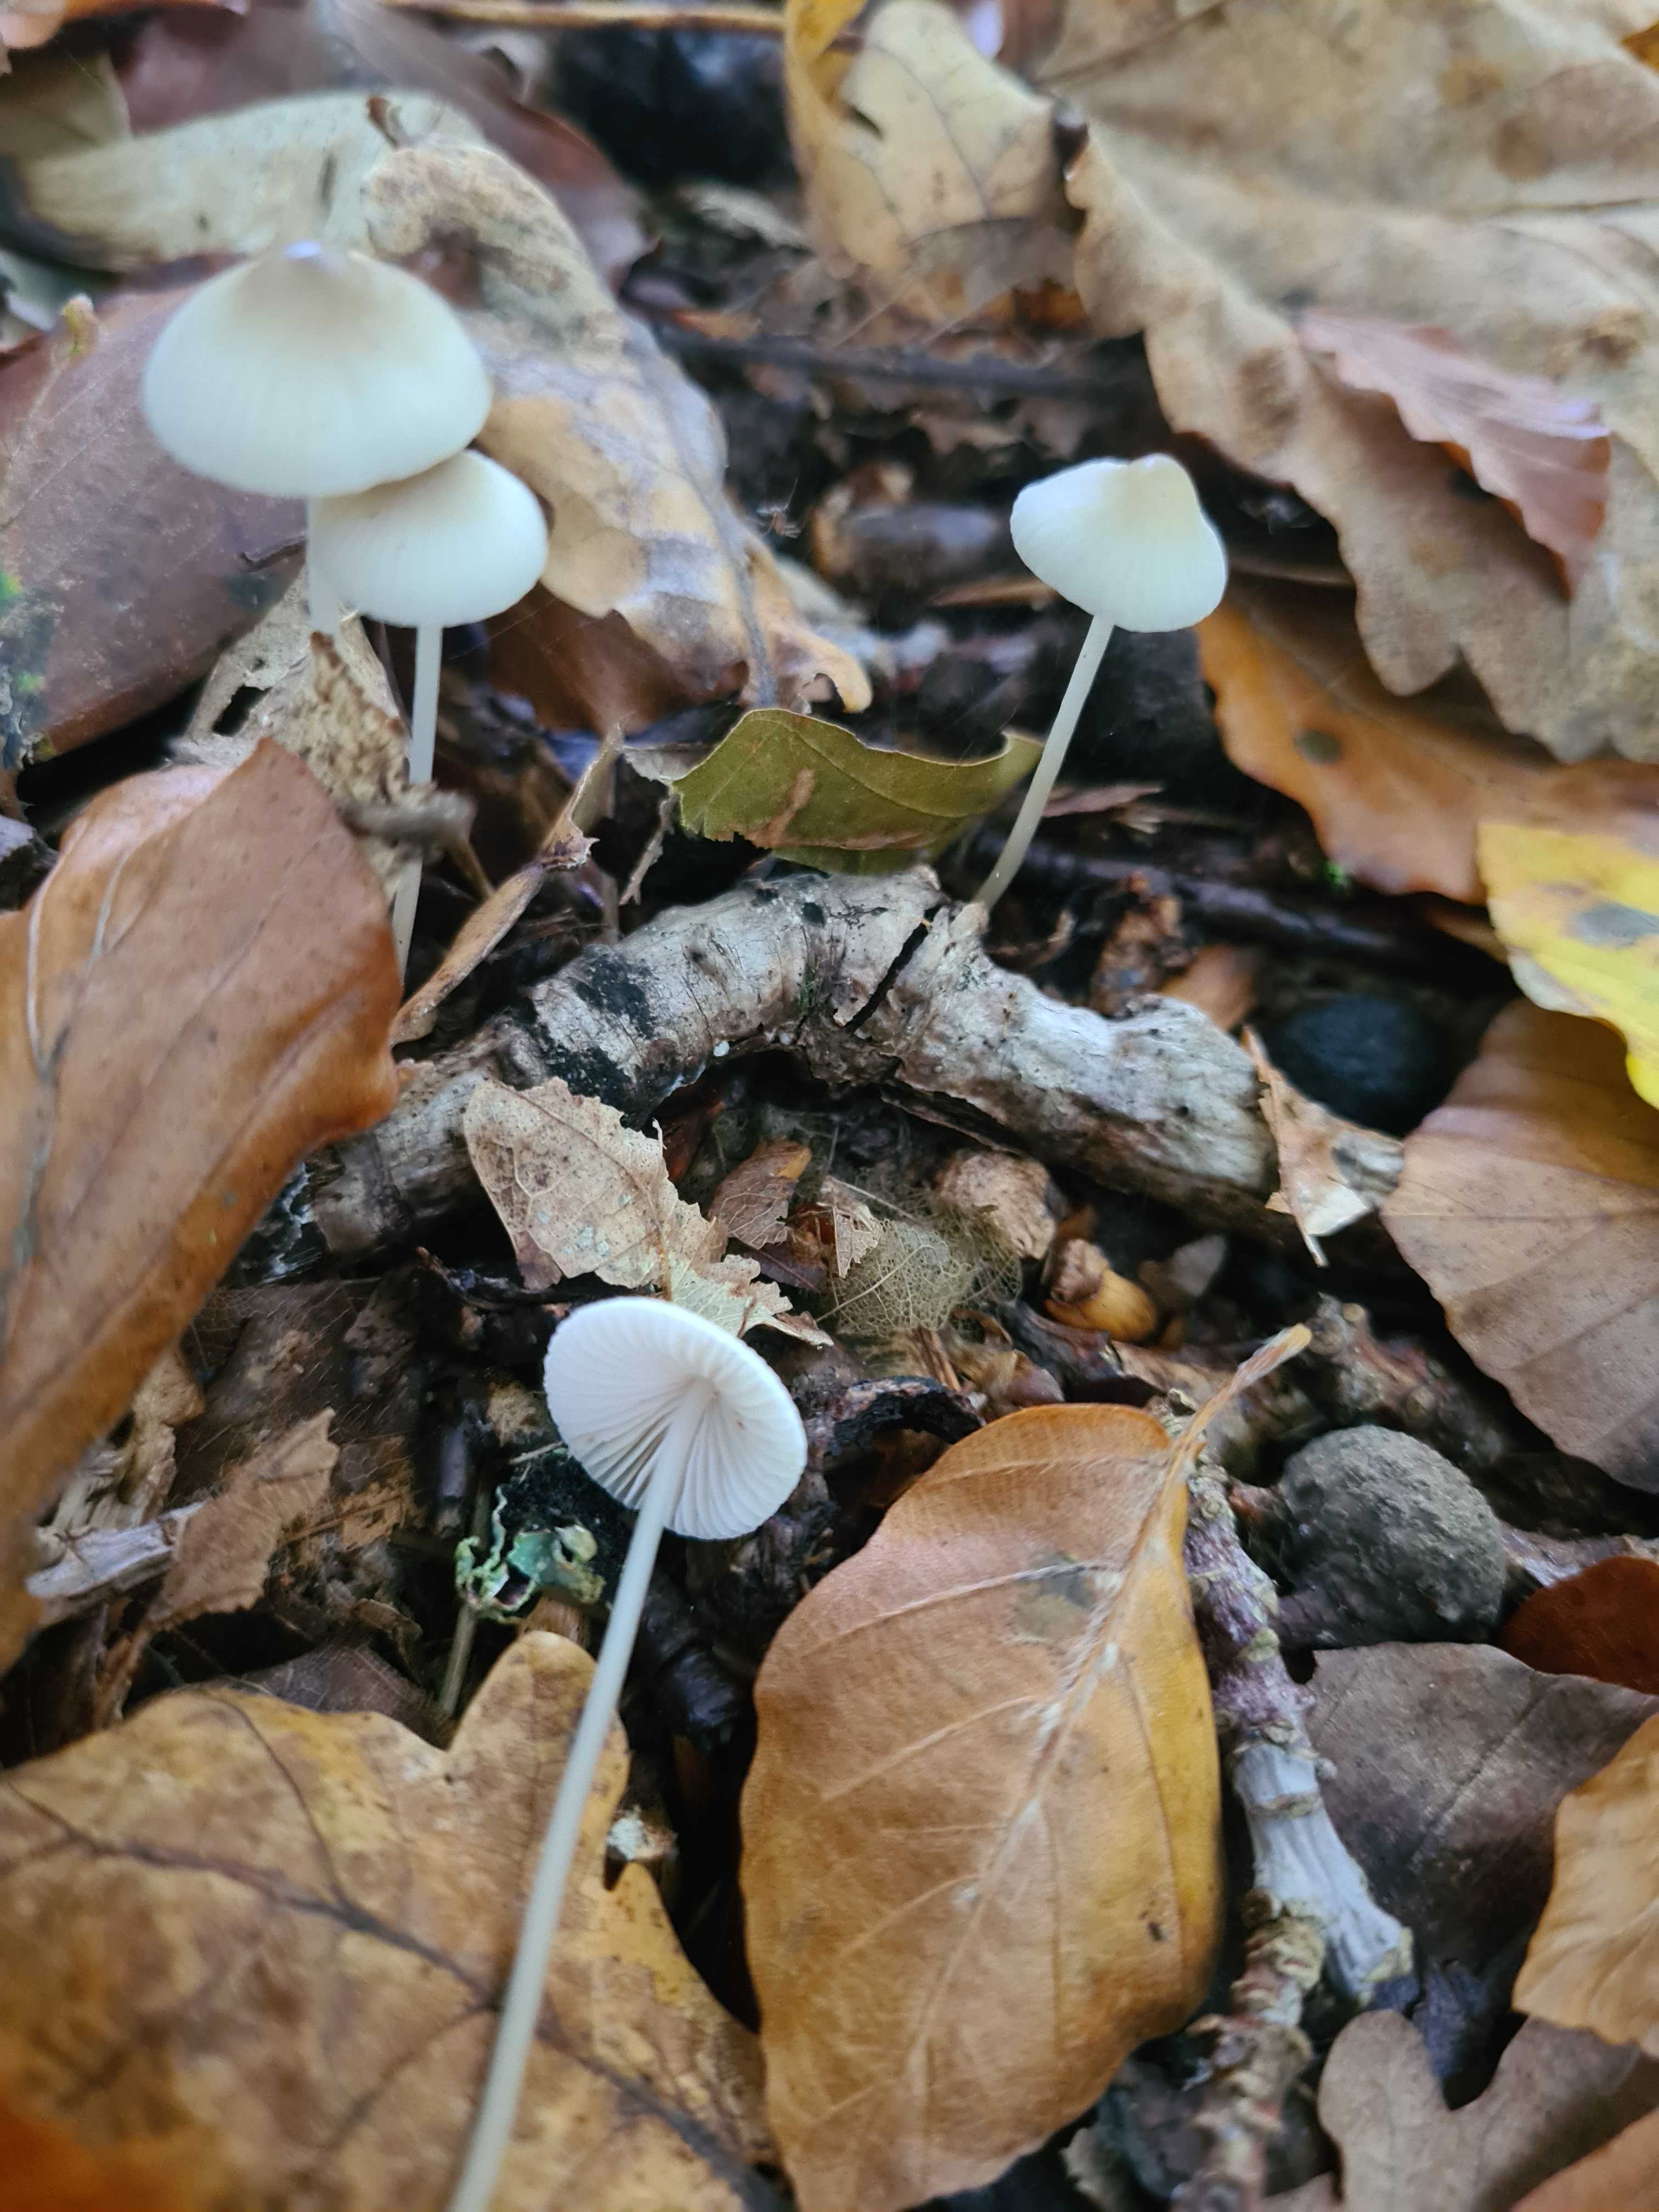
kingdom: Fungi
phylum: Basidiomycota
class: Agaricomycetes
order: Agaricales
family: Mycenaceae
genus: Mycena
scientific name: Mycena vitilis
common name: blankstokket huesvamp
